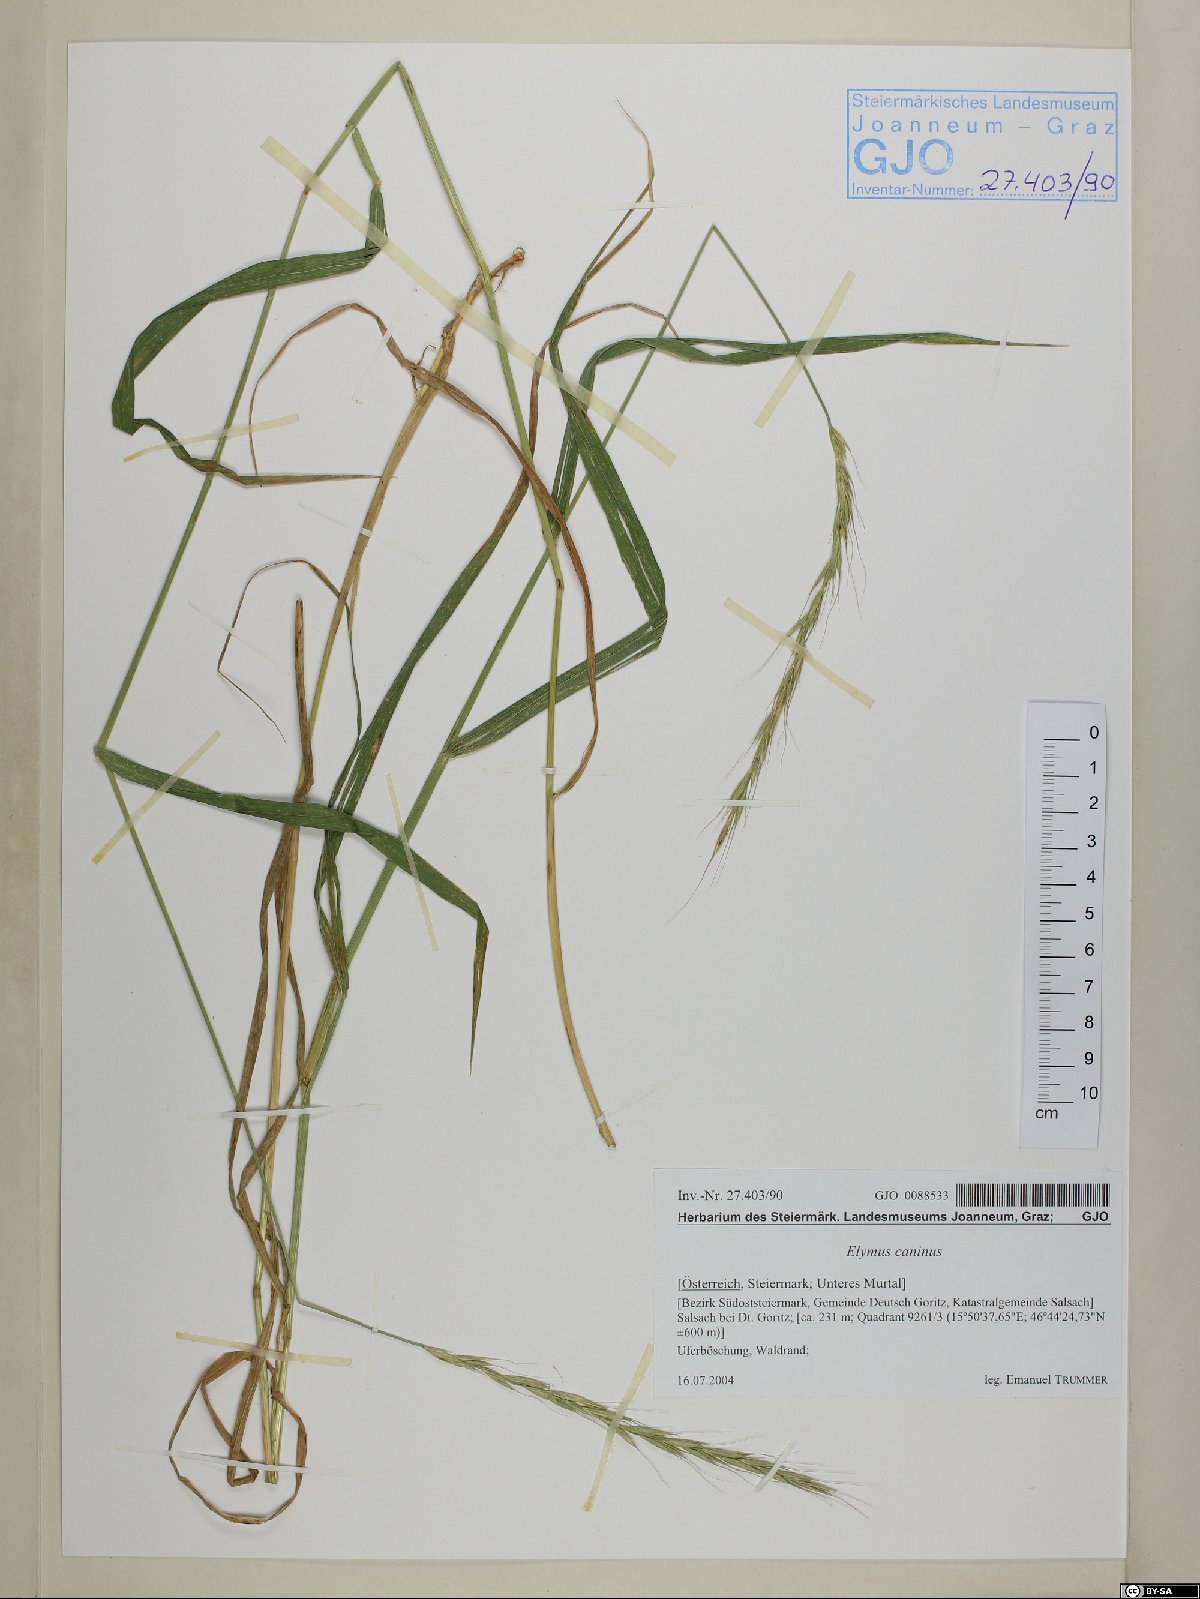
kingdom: Plantae
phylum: Tracheophyta
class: Liliopsida
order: Poales
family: Poaceae
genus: Elymus
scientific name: Elymus caninus
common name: Bearded couch
